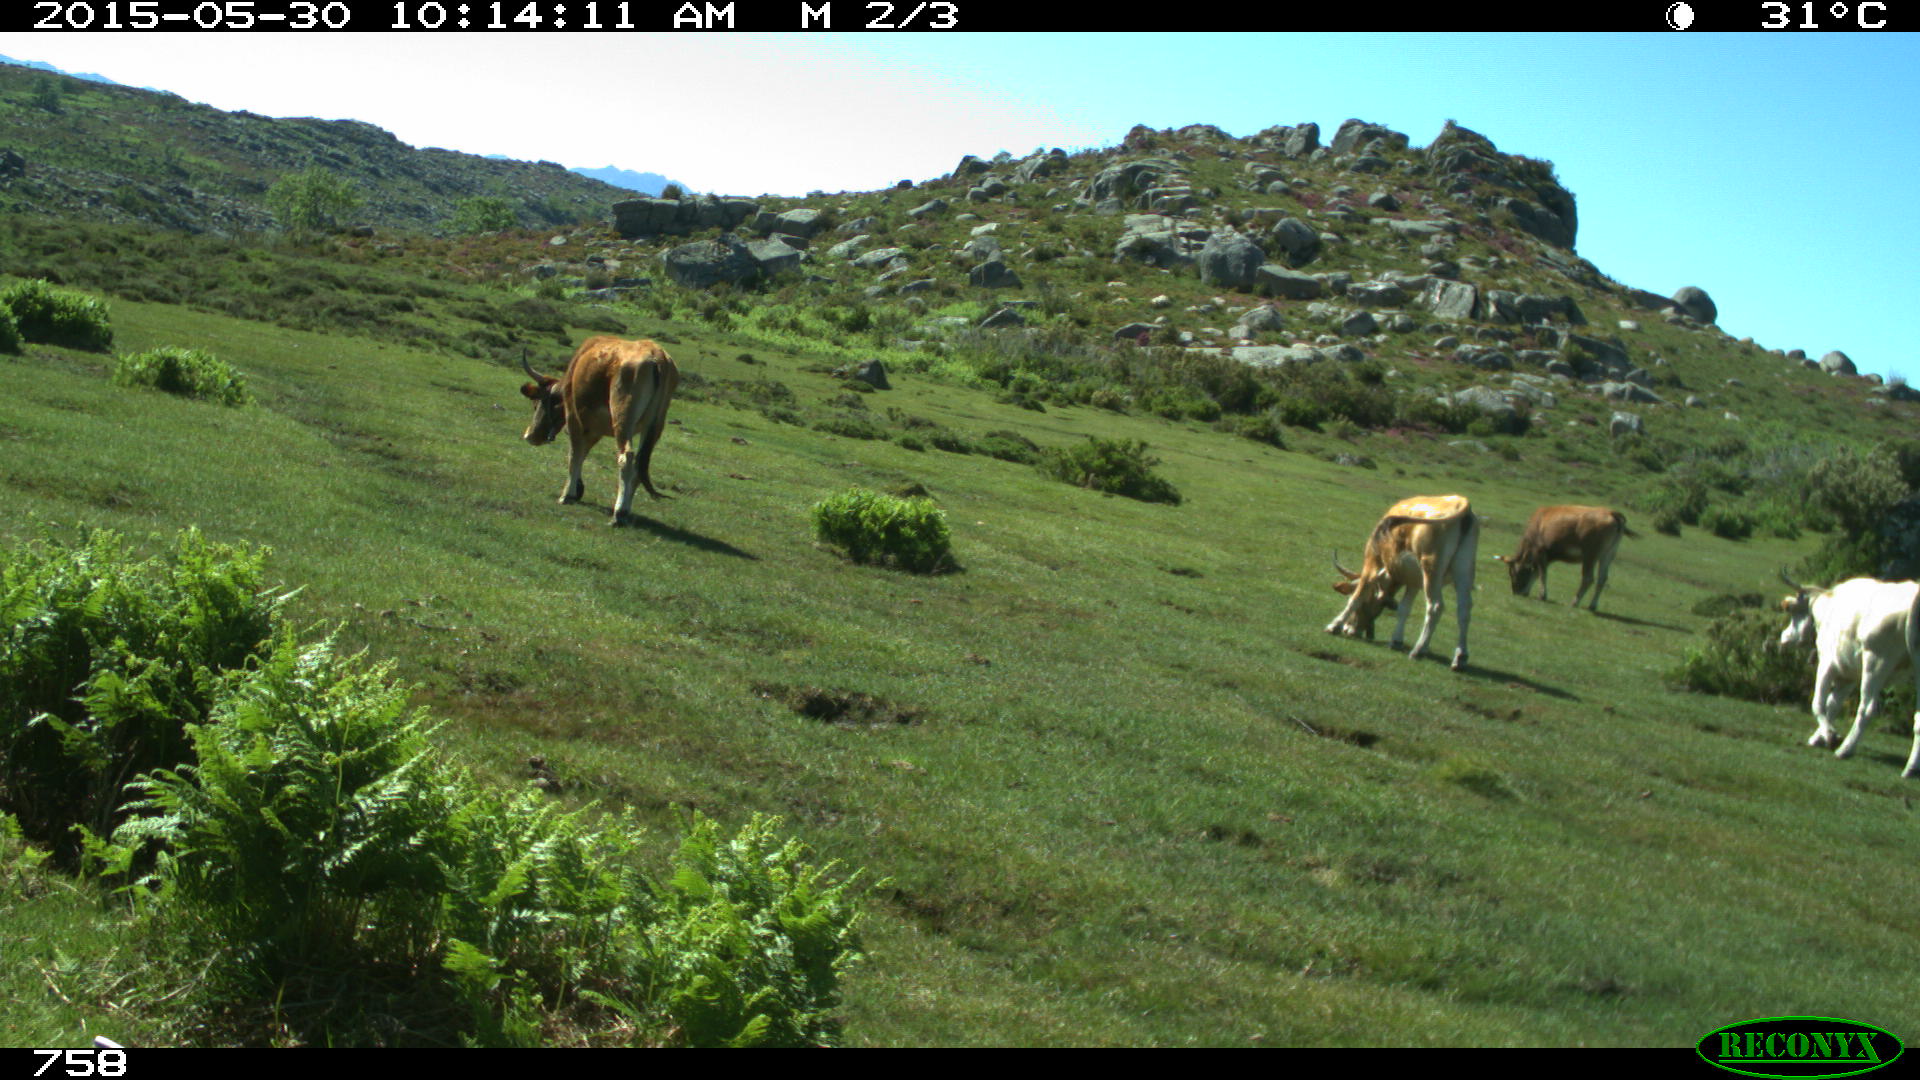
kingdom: Animalia
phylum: Chordata
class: Mammalia
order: Artiodactyla
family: Bovidae
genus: Bos
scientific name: Bos taurus
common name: Domesticated cattle
